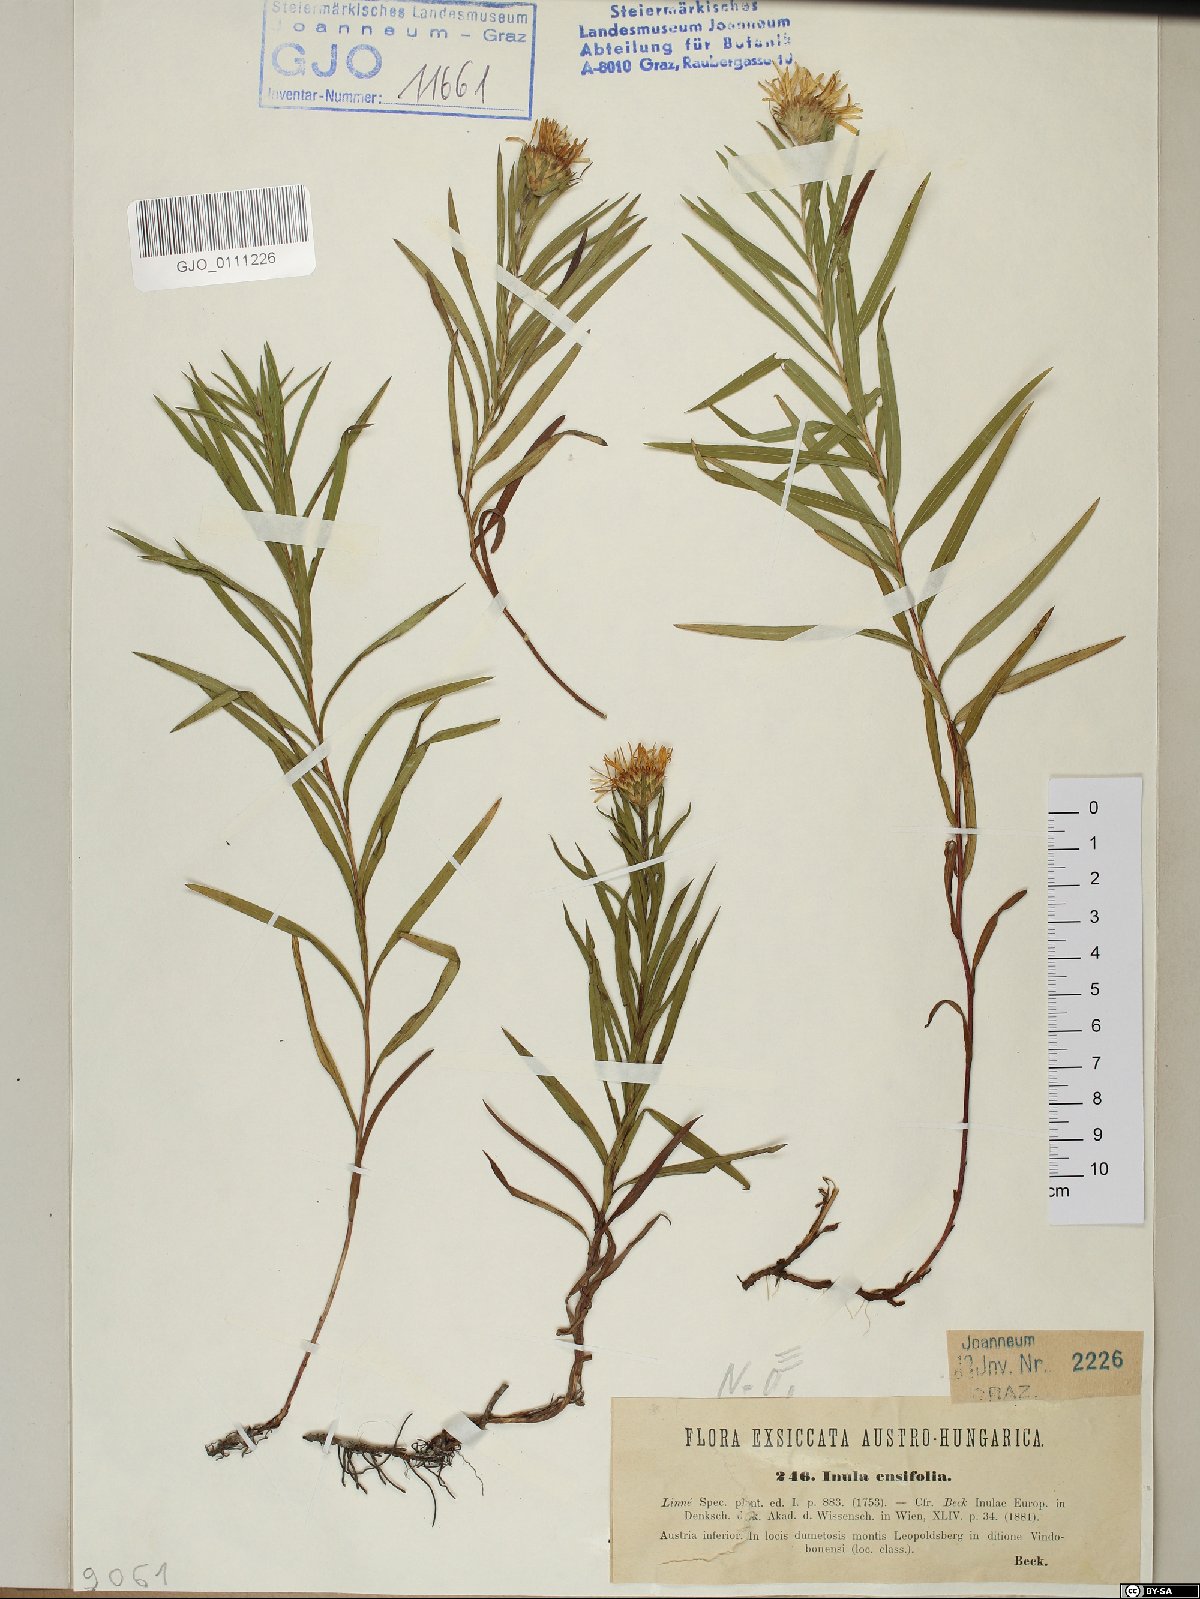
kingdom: Plantae
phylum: Tracheophyta
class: Magnoliopsida
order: Asterales
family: Asteraceae
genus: Pentanema
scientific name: Pentanema ensifolium
